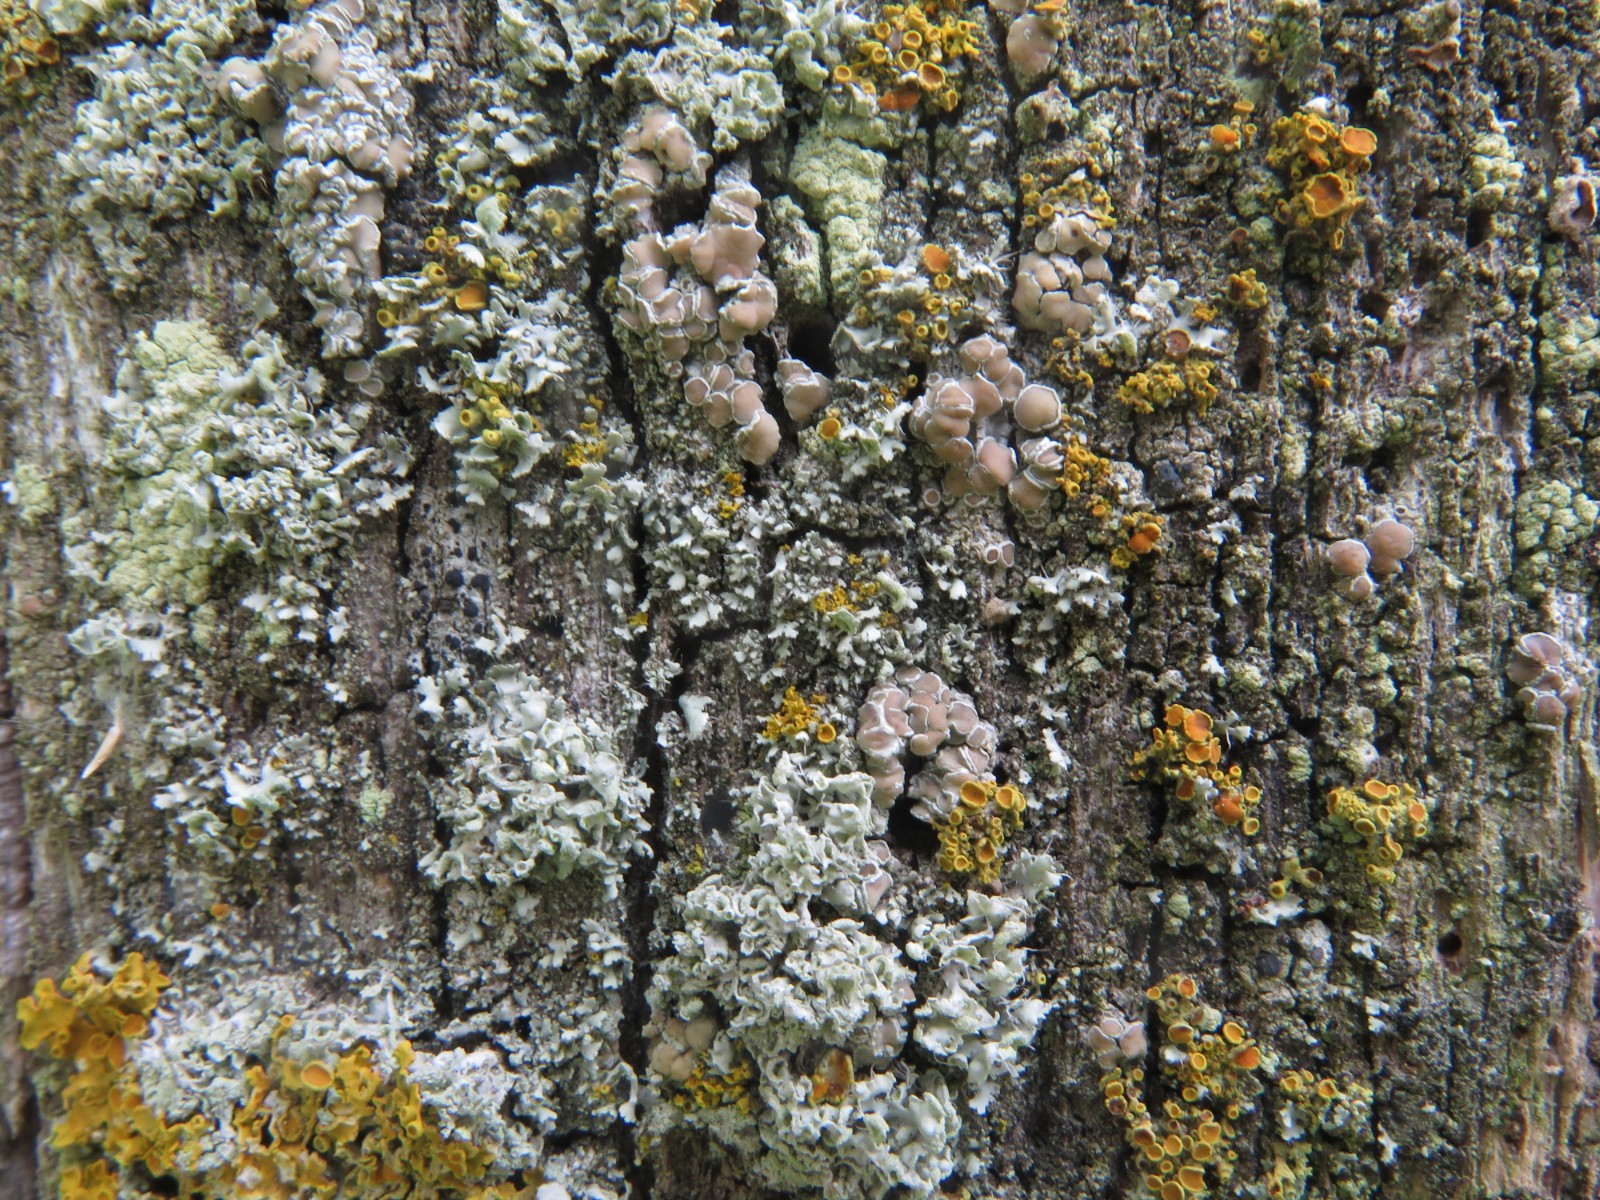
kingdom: Fungi
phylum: Ascomycota
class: Lecanoromycetes
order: Lecanorales
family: Lecanoraceae
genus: Lecanora
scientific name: Lecanora chlarotera
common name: brun kantskivelav
